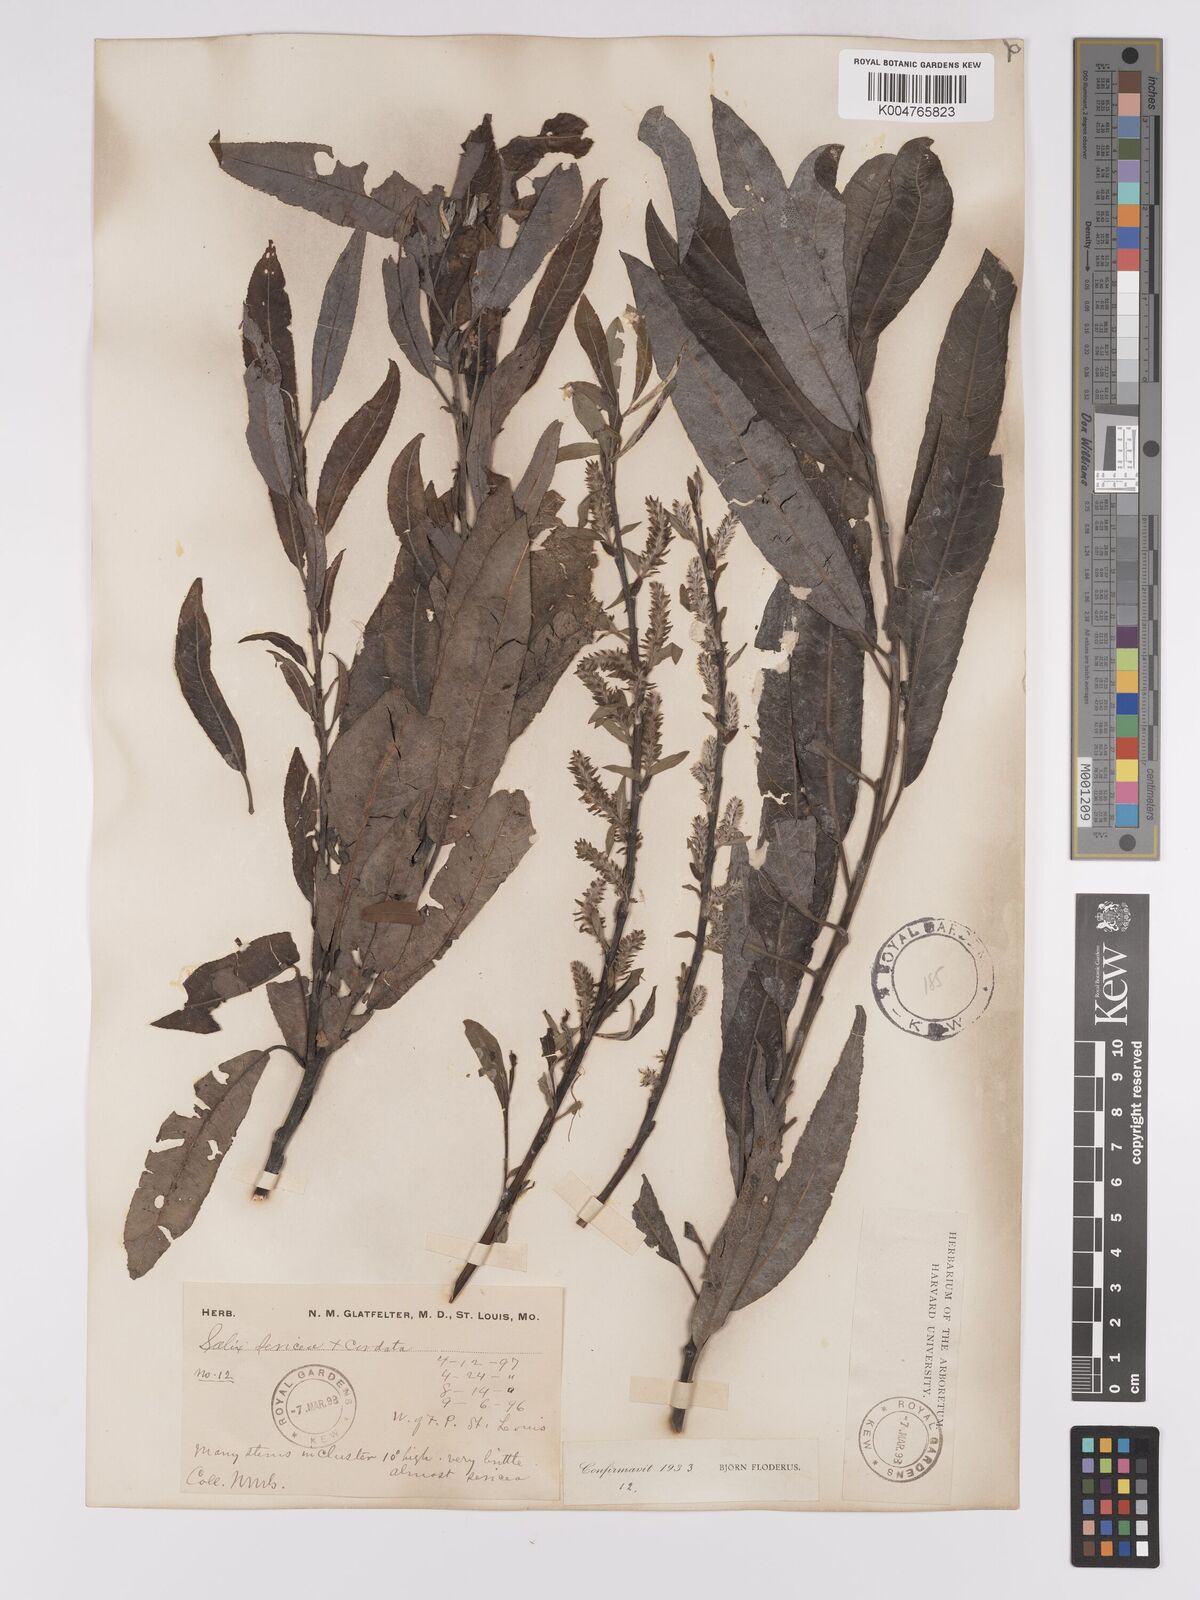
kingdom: Plantae
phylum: Tracheophyta
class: Magnoliopsida
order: Malpighiales
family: Salicaceae
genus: Salix
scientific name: Salix
